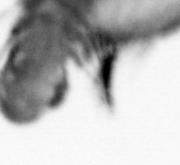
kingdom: Animalia
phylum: Annelida
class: Polychaeta
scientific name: Polychaeta
